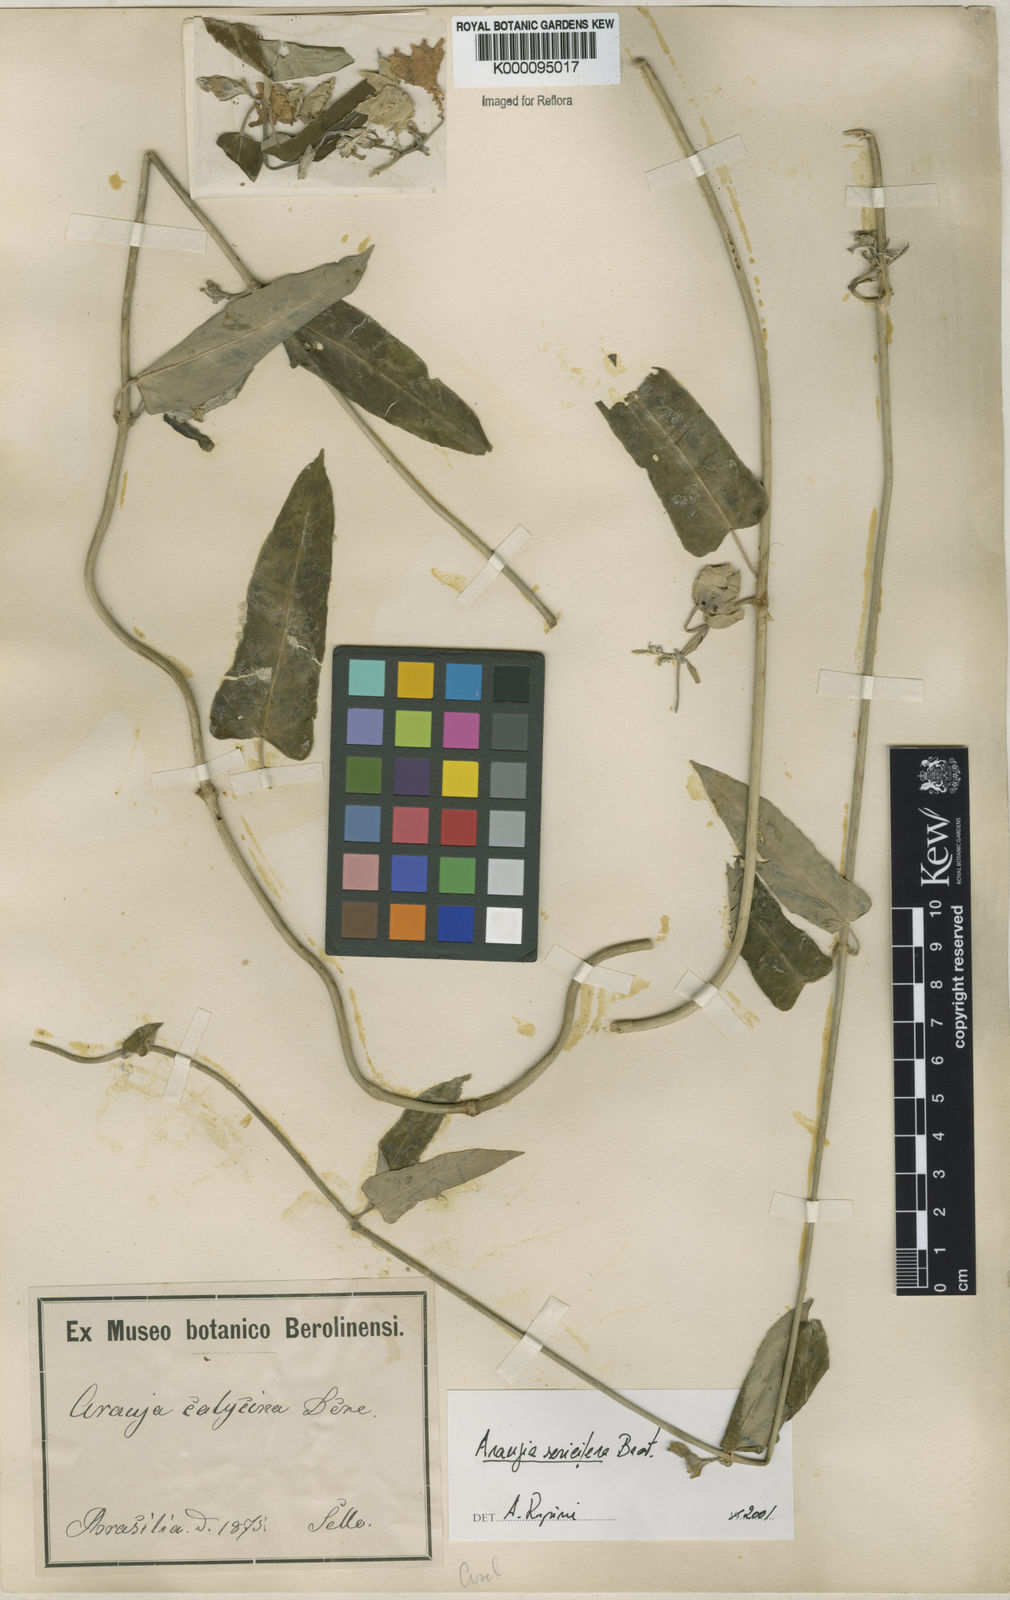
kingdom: Plantae
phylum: Tracheophyta
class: Magnoliopsida
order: Gentianales
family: Apocynaceae
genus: Araujia
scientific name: Araujia sericifera
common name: White bladderflower
